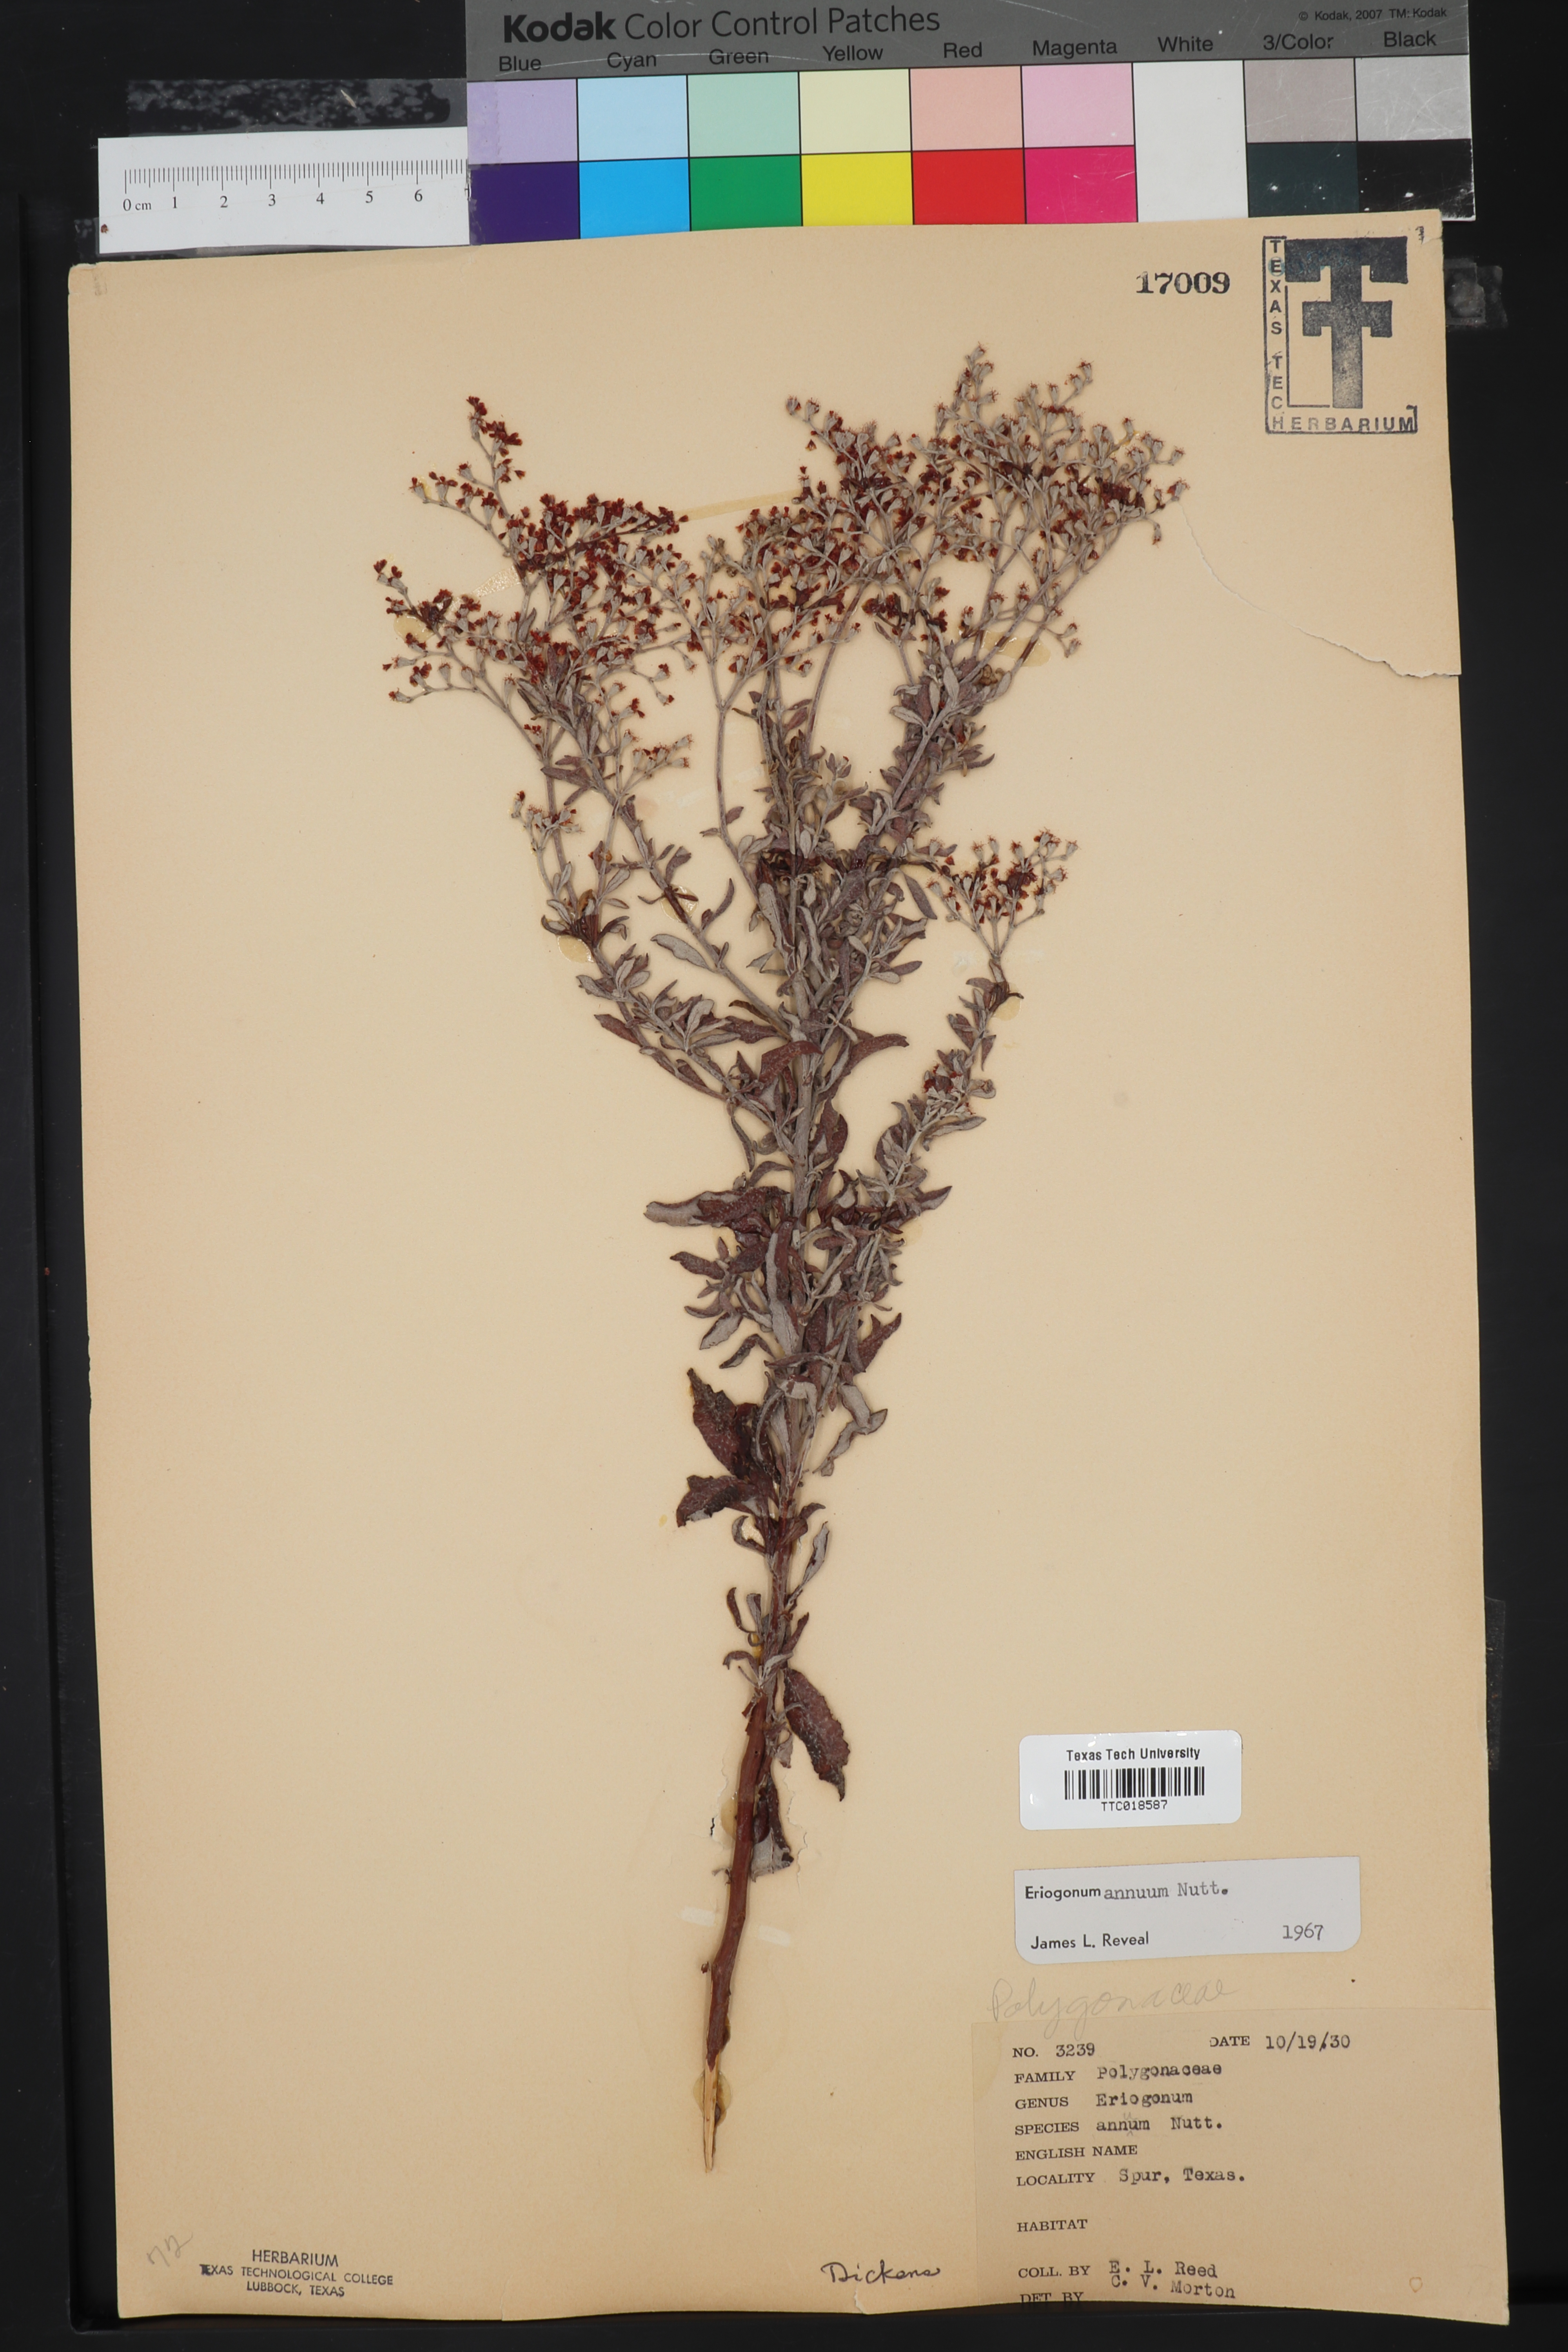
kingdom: Plantae
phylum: Tracheophyta
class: Magnoliopsida
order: Caryophyllales
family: Polygonaceae
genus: Eriogonum
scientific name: Eriogonum annuum
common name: Annual wild buckwheat
